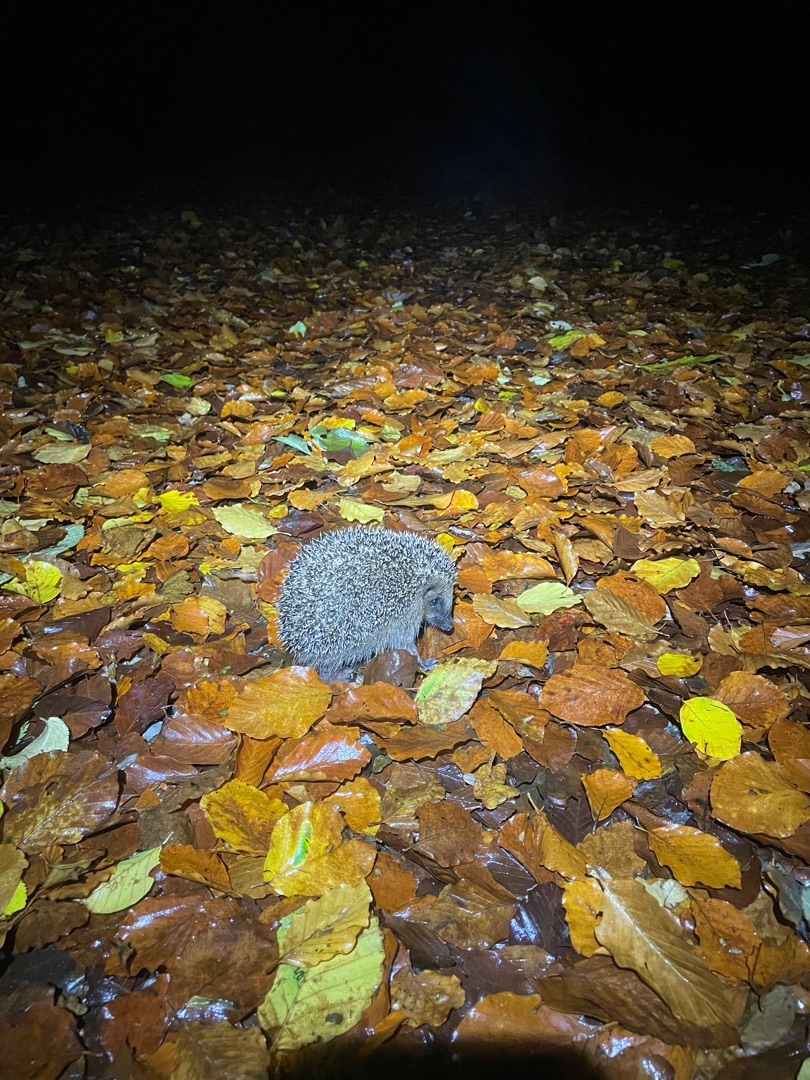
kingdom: Animalia
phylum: Chordata
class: Mammalia
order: Erinaceomorpha
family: Erinaceidae
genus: Erinaceus
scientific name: Erinaceus europaeus
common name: Pindsvin
